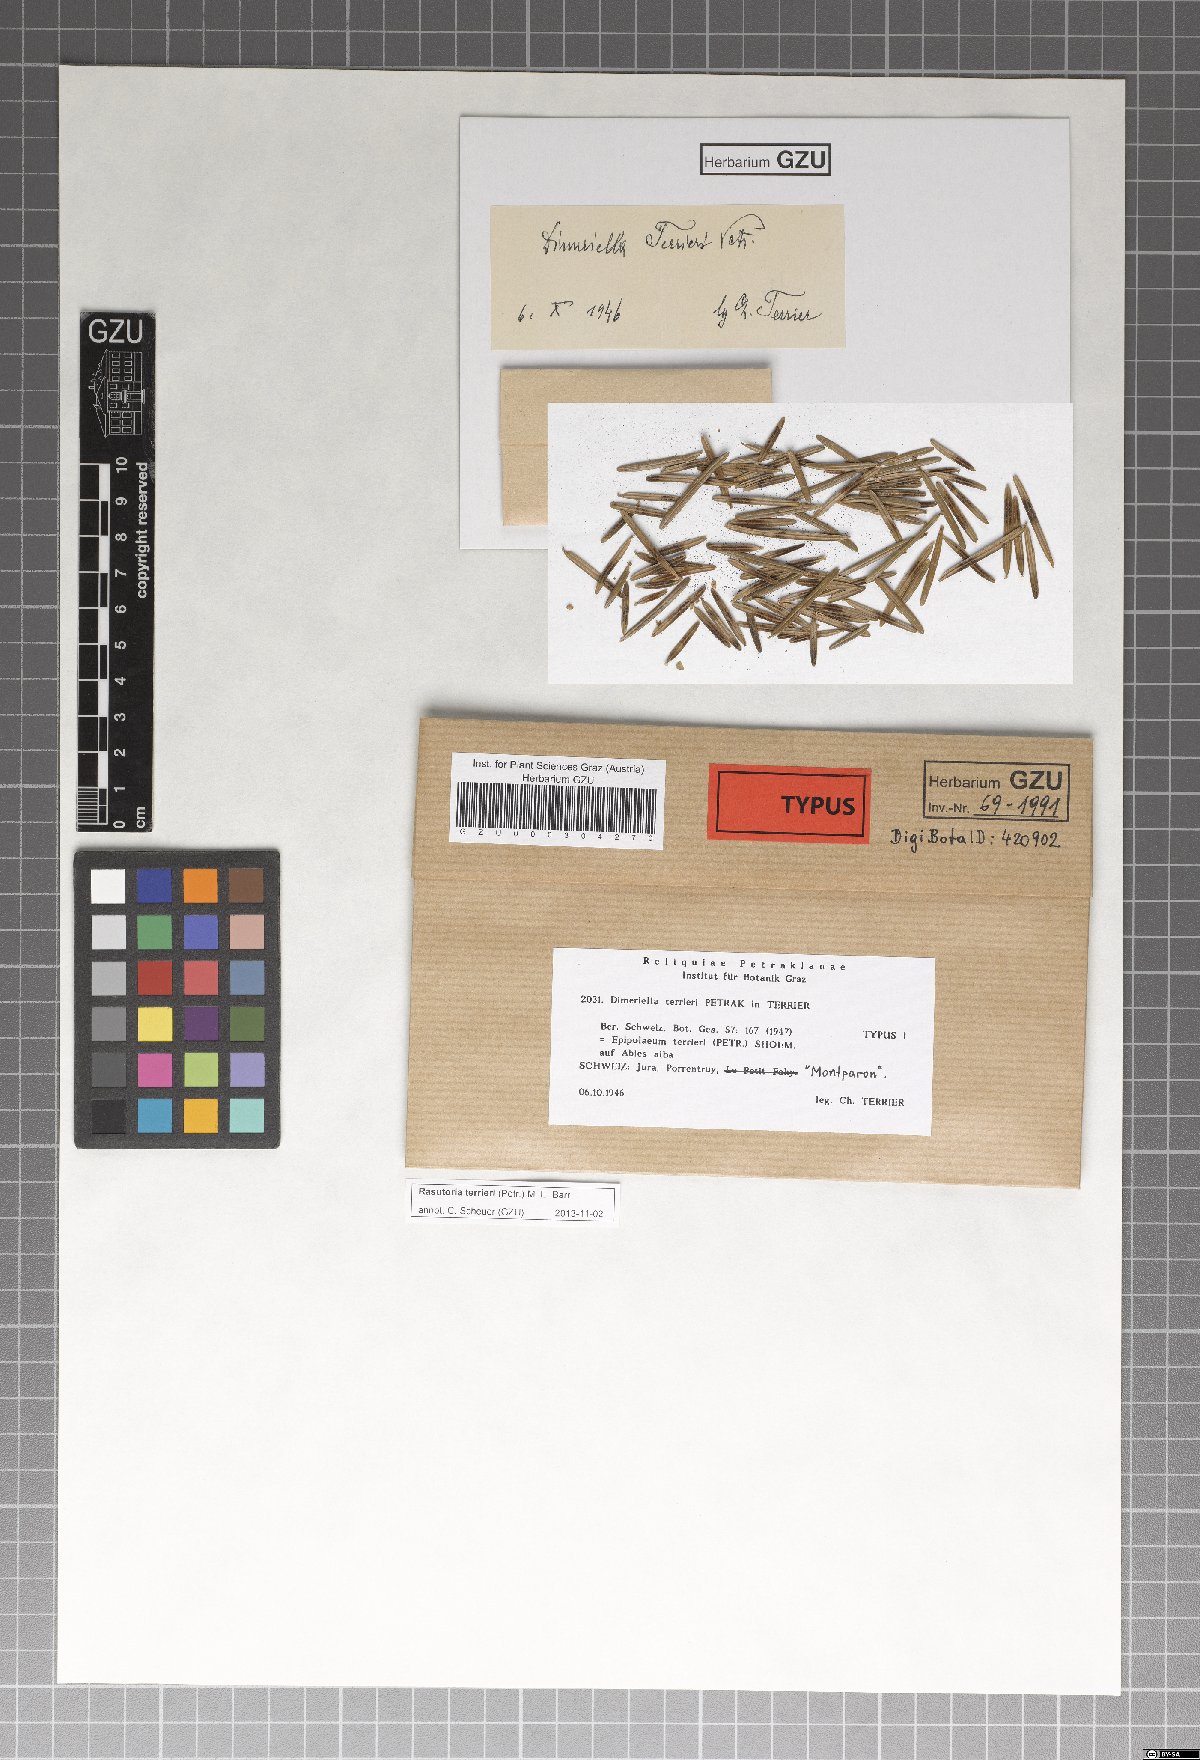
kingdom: Fungi
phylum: Ascomycota
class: Dothideomycetes
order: Capnodiales
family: Euantennariaceae
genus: Rasutoria
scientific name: Rasutoria terrieri
